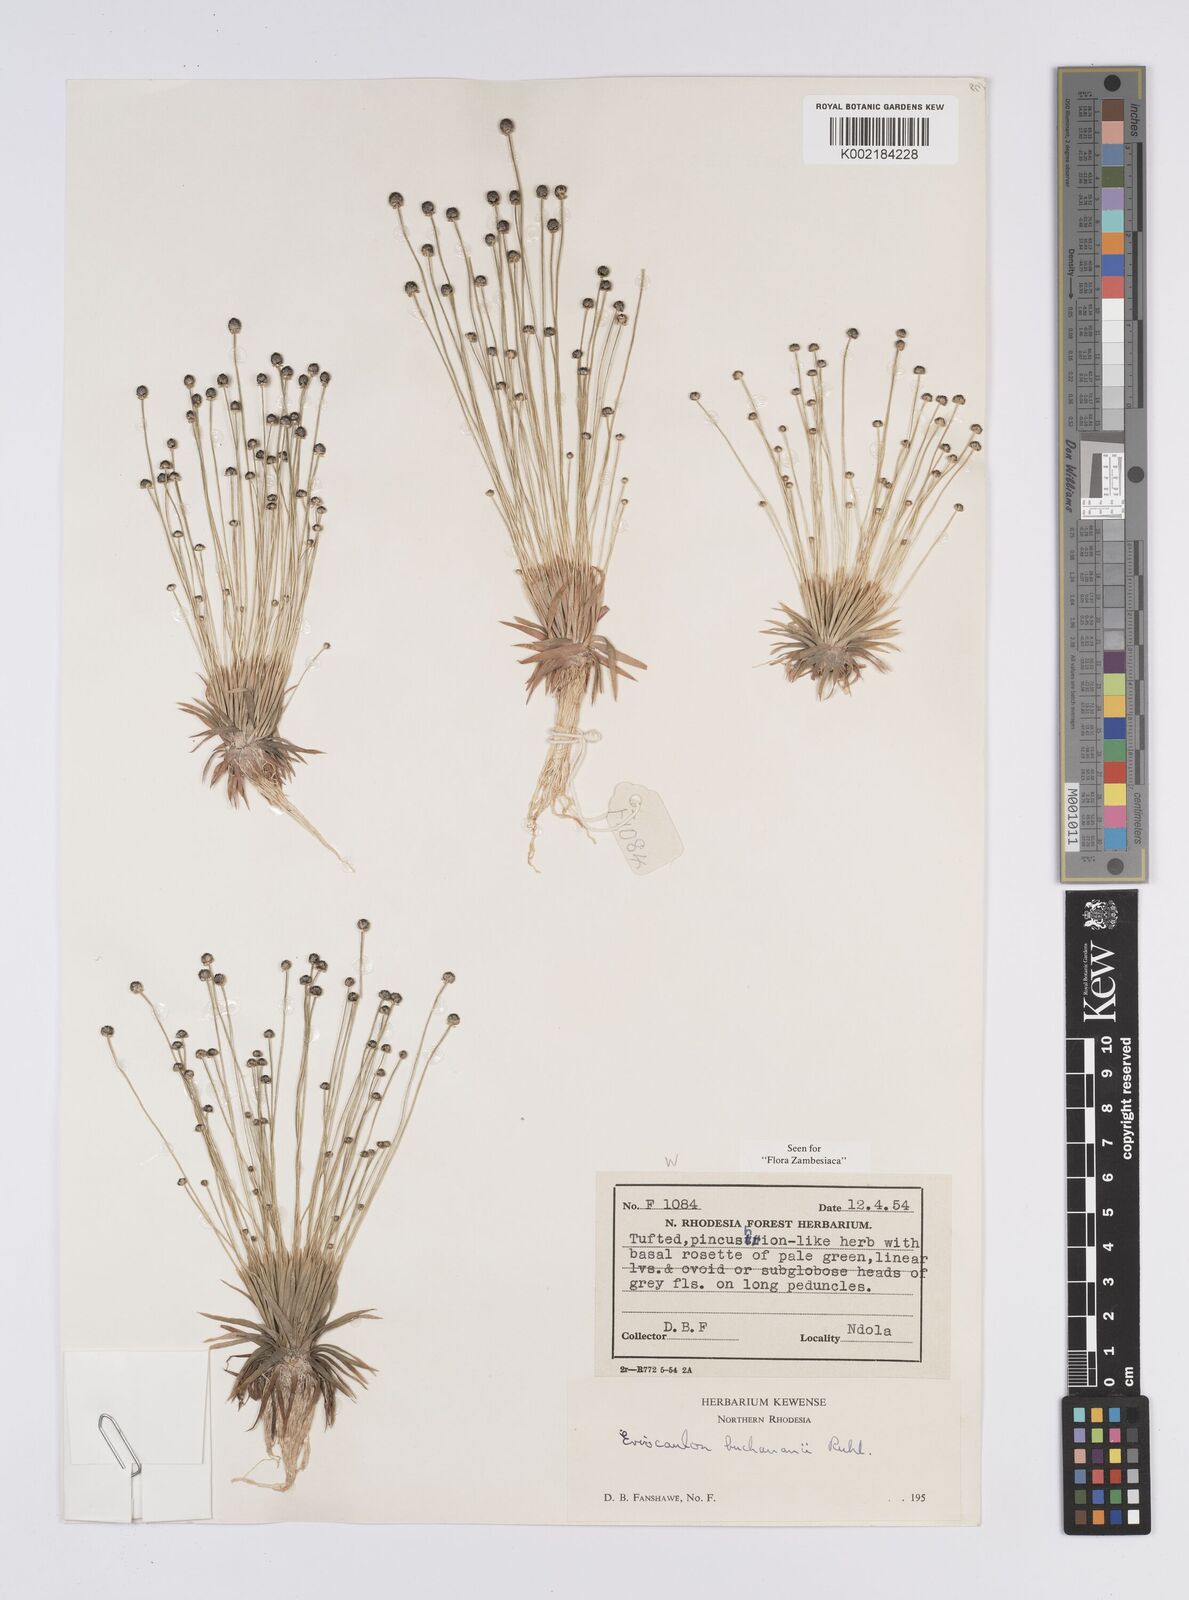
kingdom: Plantae
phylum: Tracheophyta
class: Liliopsida
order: Poales
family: Eriocaulaceae
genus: Eriocaulon
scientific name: Eriocaulon buchananii
